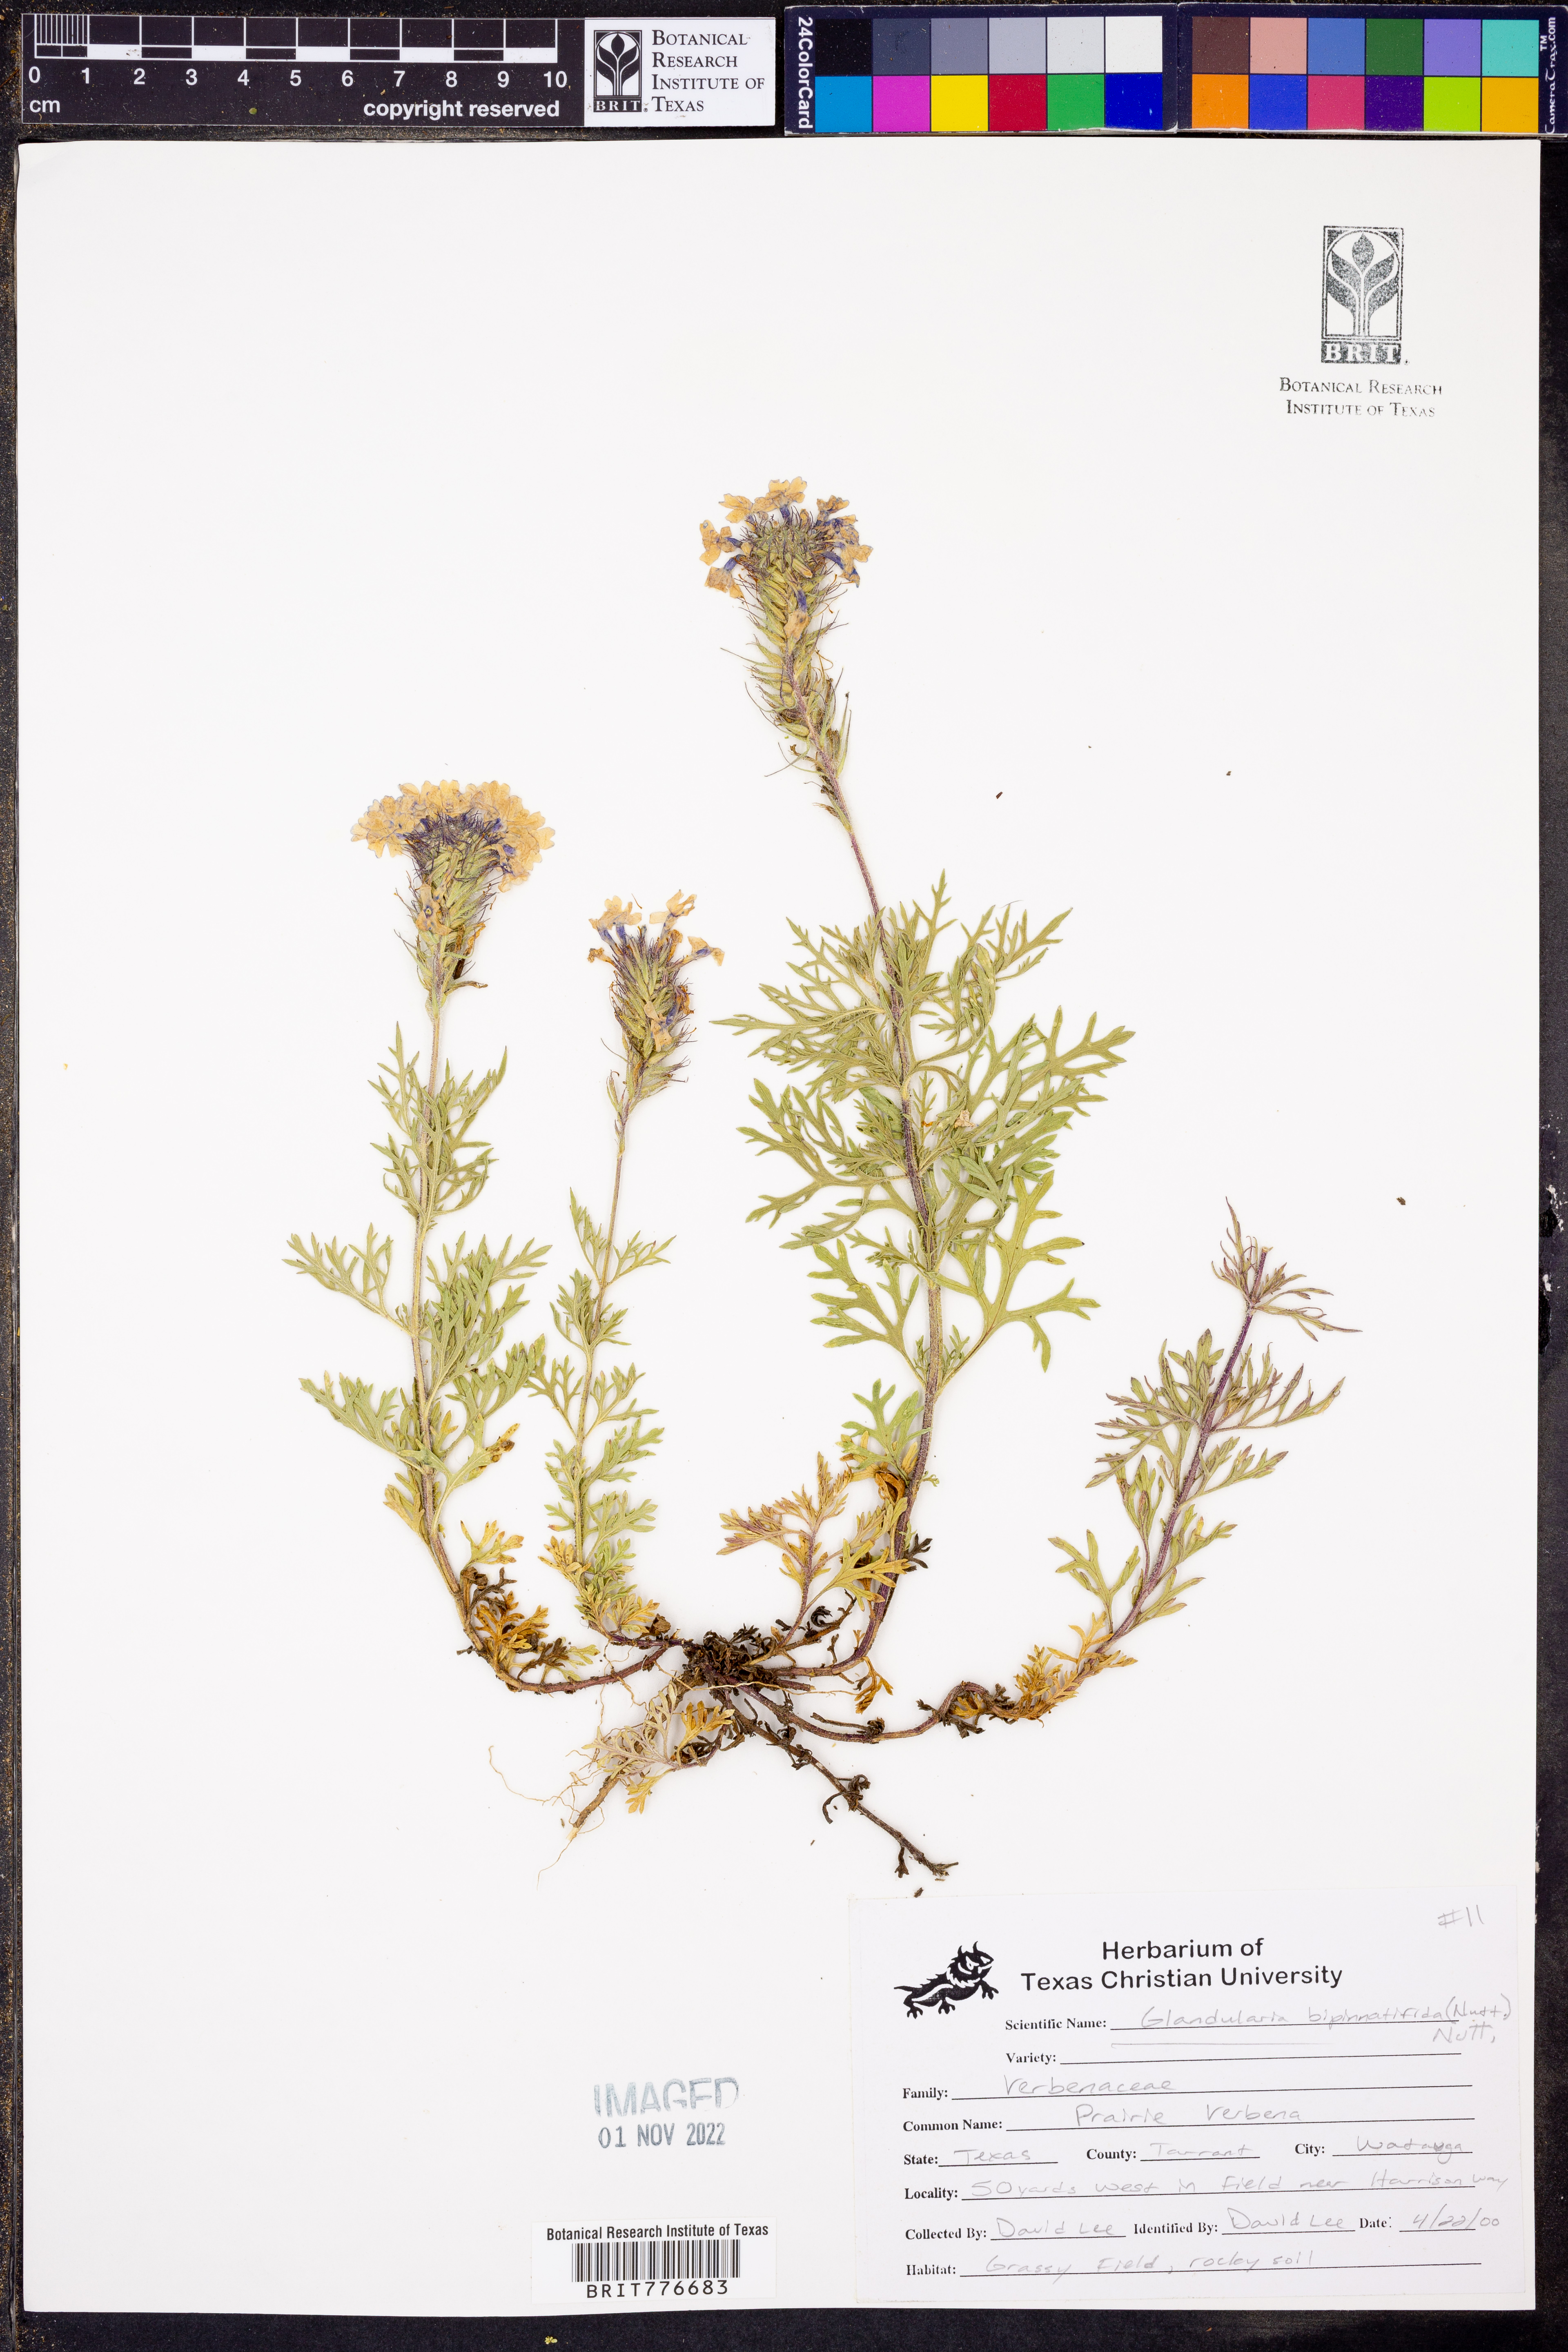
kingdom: Plantae
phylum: Tracheophyta
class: Magnoliopsida
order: Lamiales
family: Verbenaceae
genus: Verbena
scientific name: Verbena bipinnatifida
